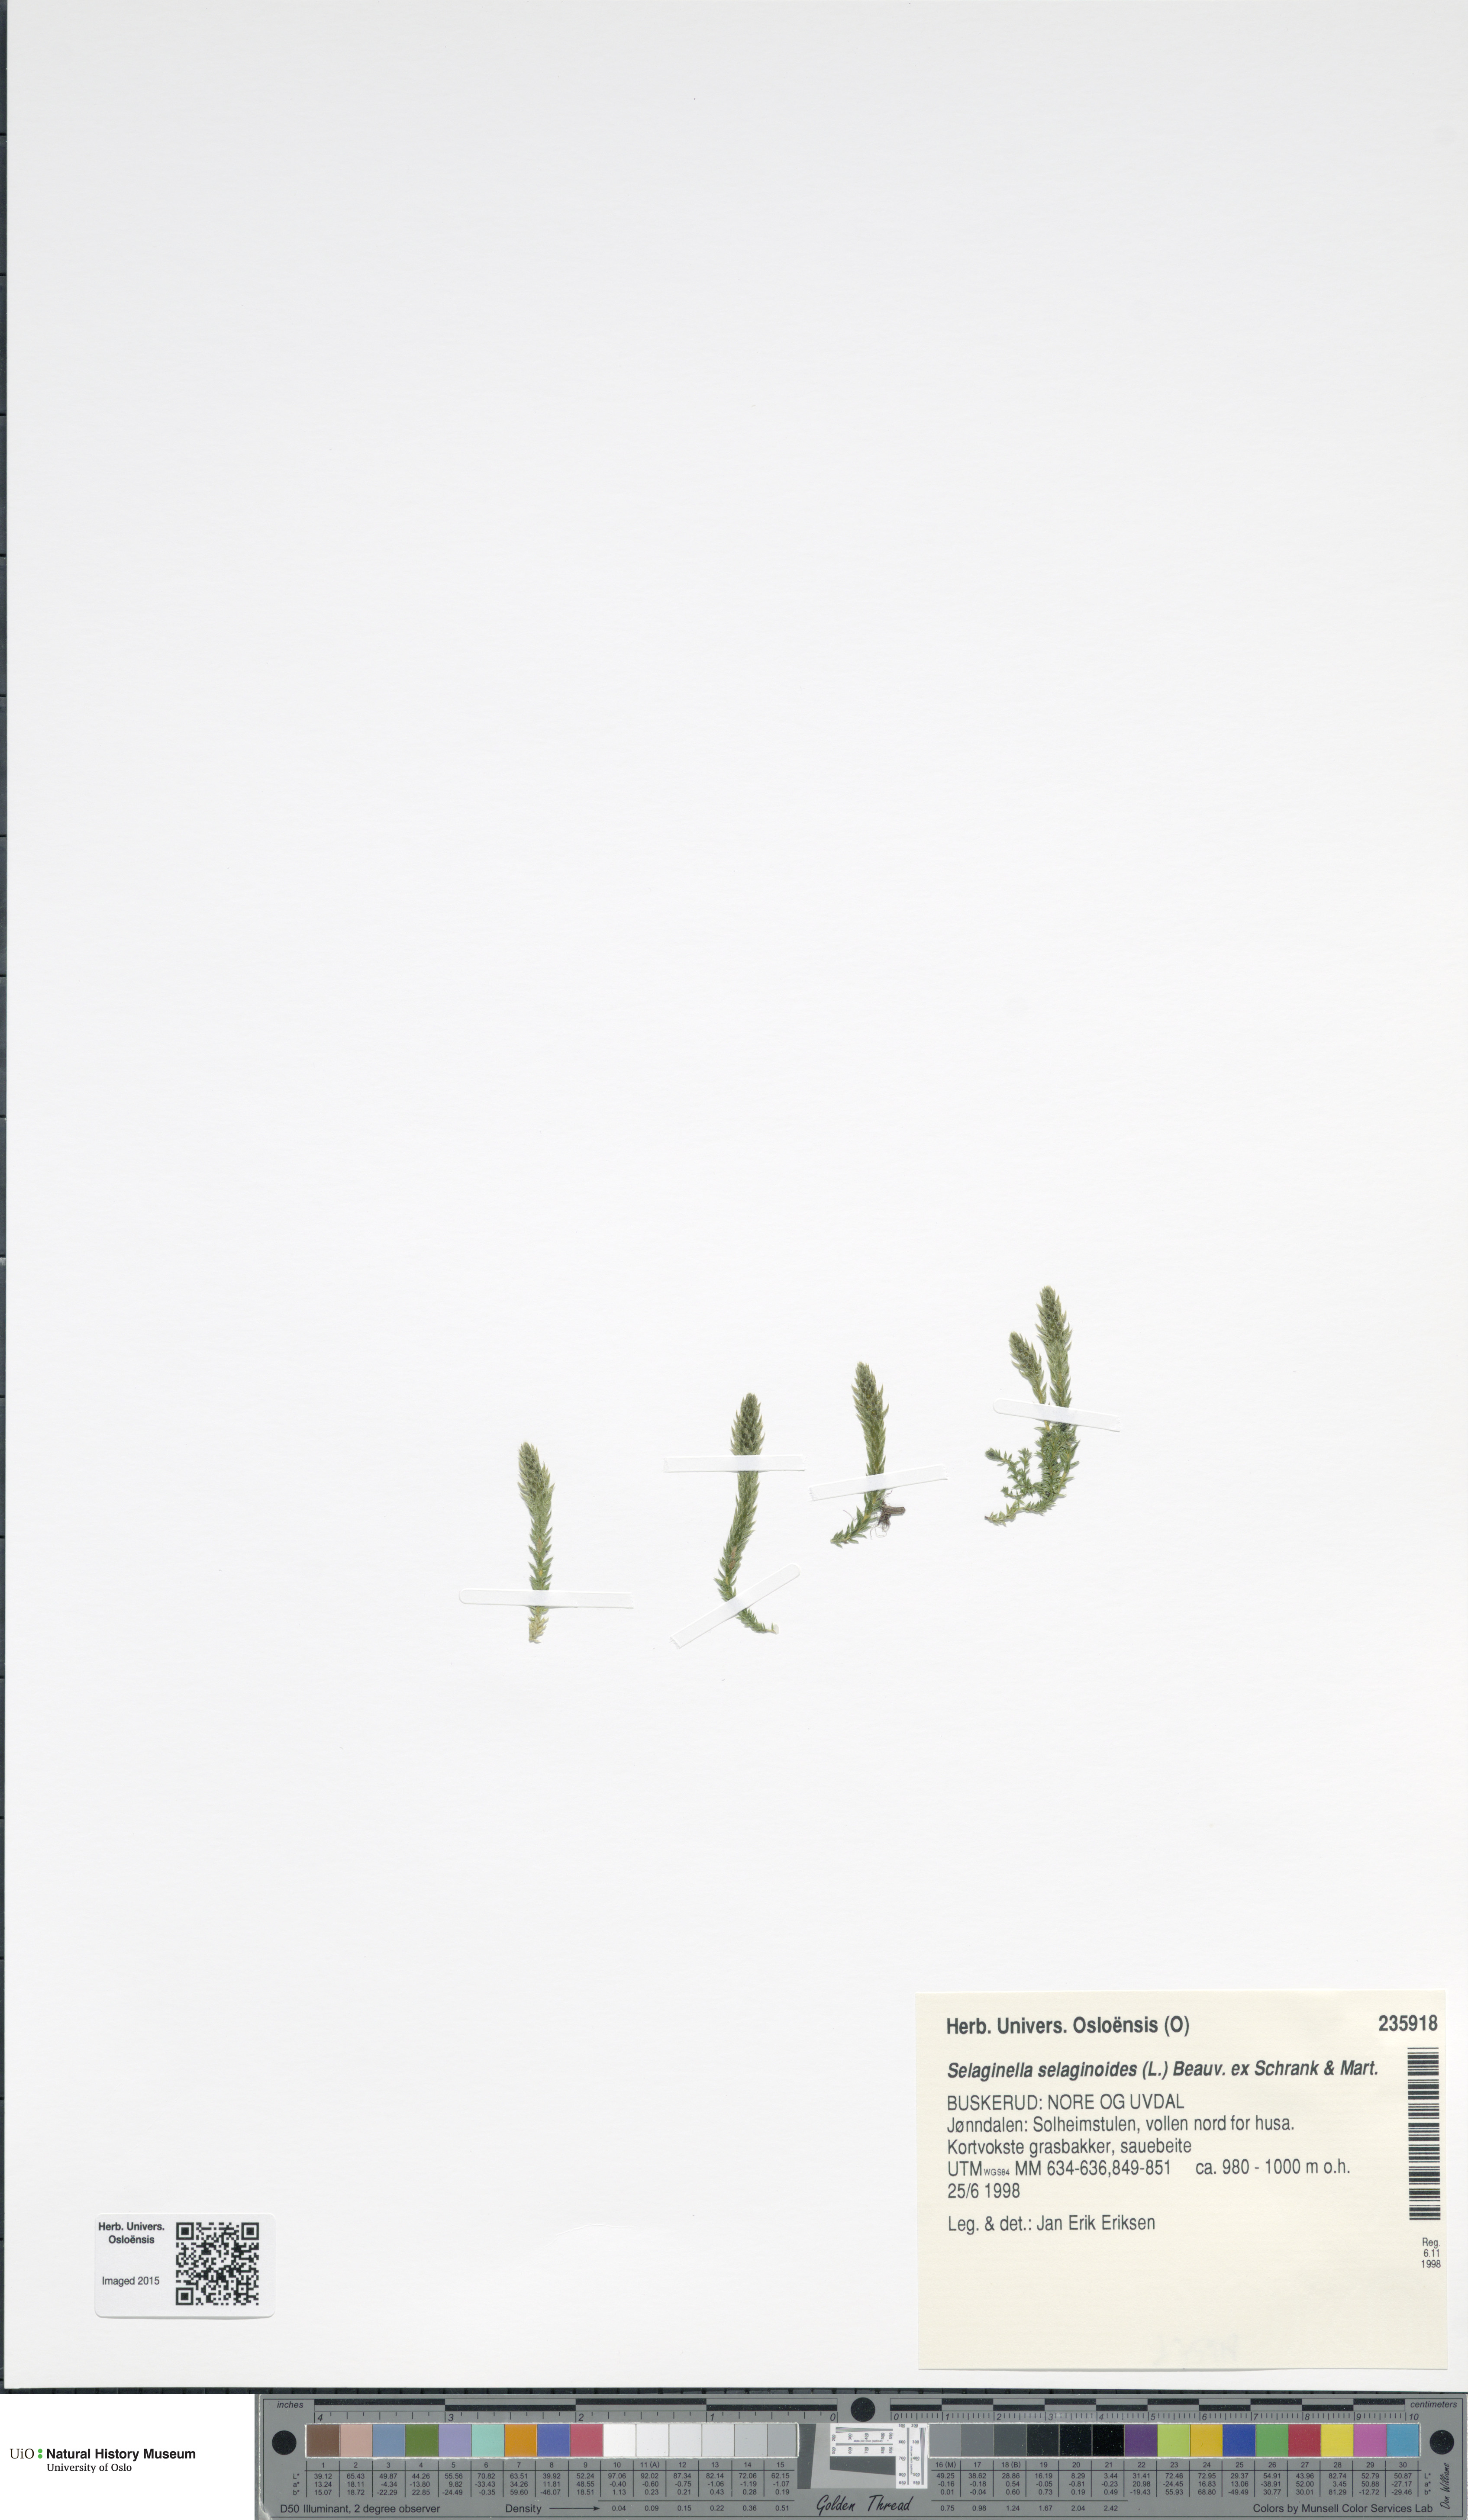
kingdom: Plantae
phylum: Tracheophyta
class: Lycopodiopsida
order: Selaginellales
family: Selaginellaceae
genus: Selaginella
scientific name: Selaginella selaginoides
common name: Prickly mountain-moss
